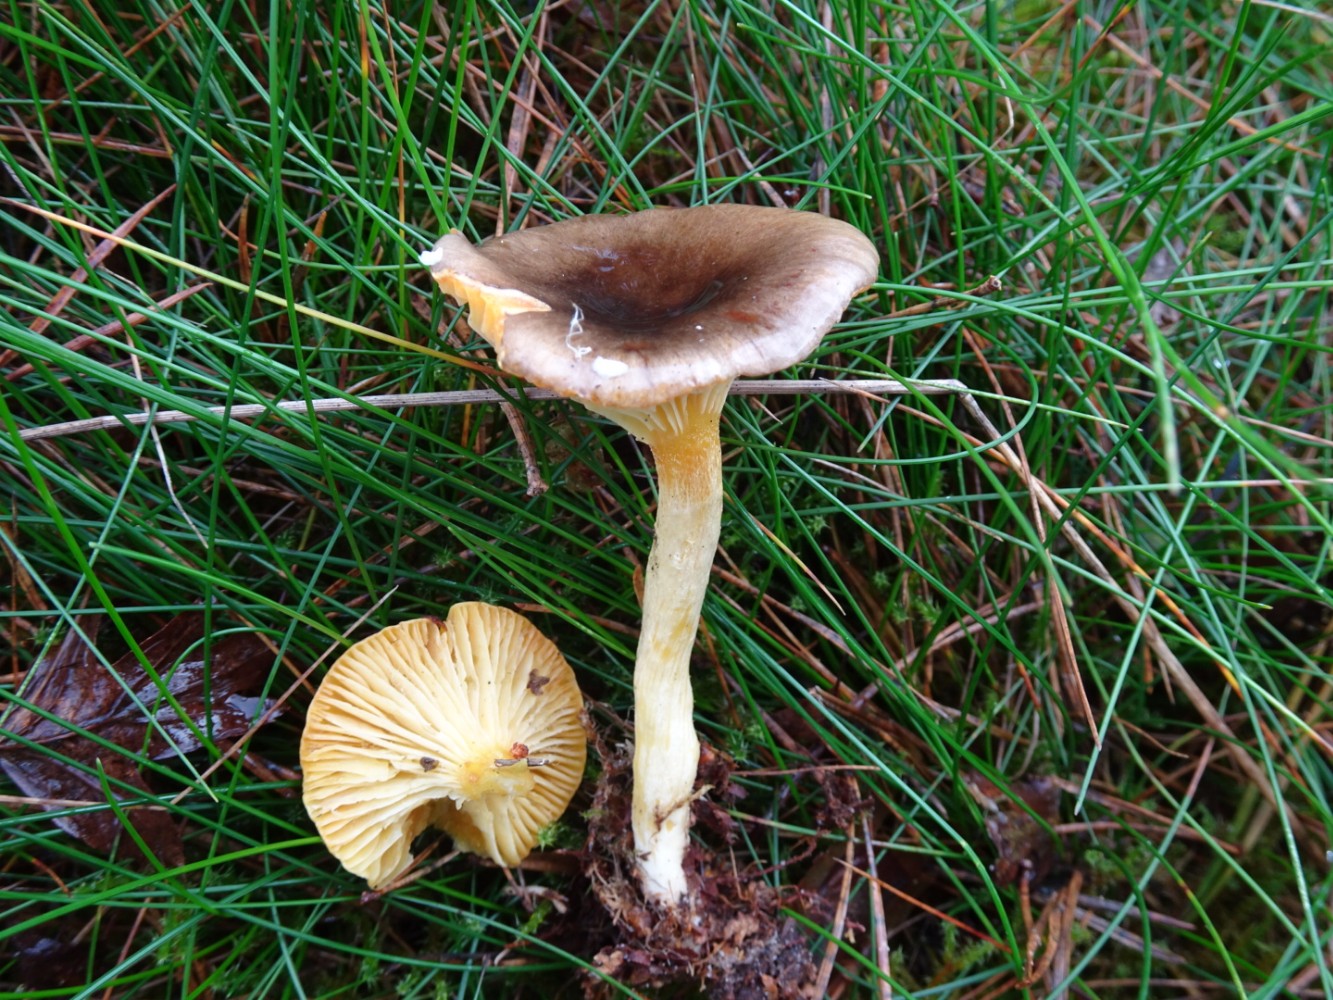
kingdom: Fungi
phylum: Basidiomycota
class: Agaricomycetes
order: Agaricales
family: Hygrophoraceae
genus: Hygrophorus
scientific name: Hygrophorus hypothejus
